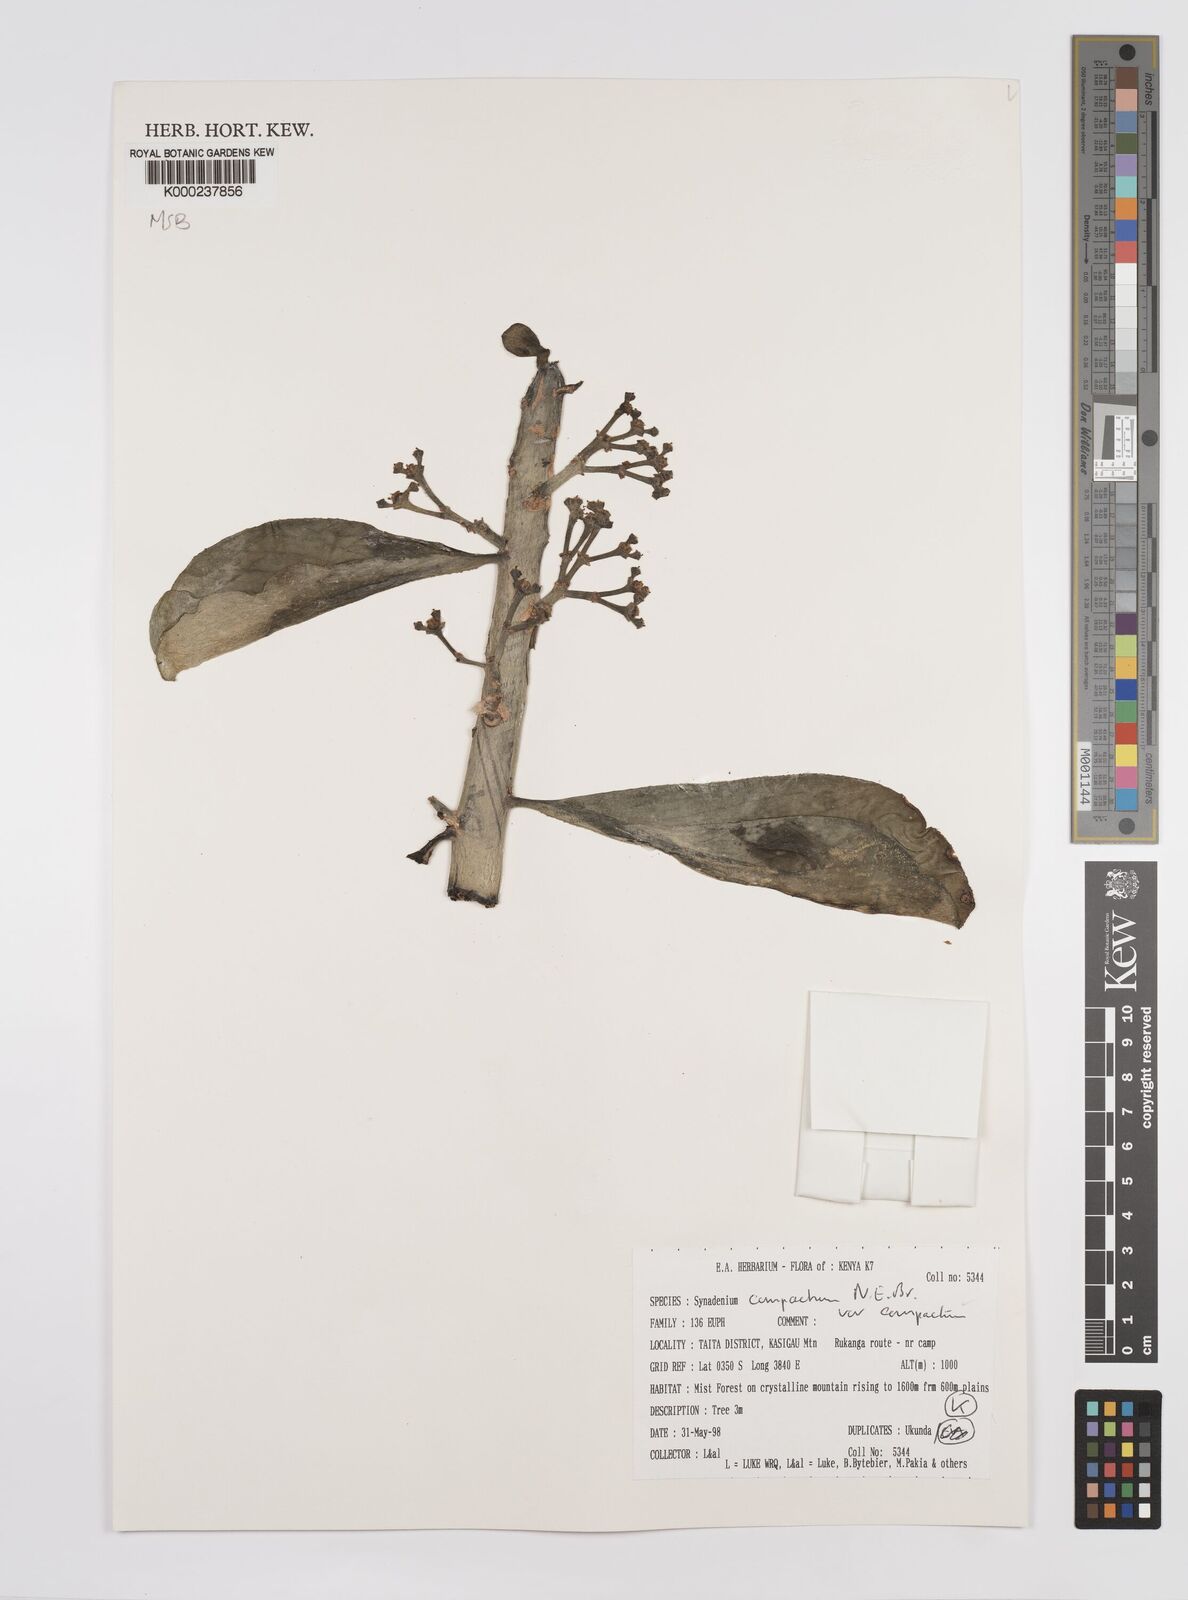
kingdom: Plantae
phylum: Tracheophyta
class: Magnoliopsida
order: Malpighiales
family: Euphorbiaceae
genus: Euphorbia
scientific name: Euphorbia bicompacta
